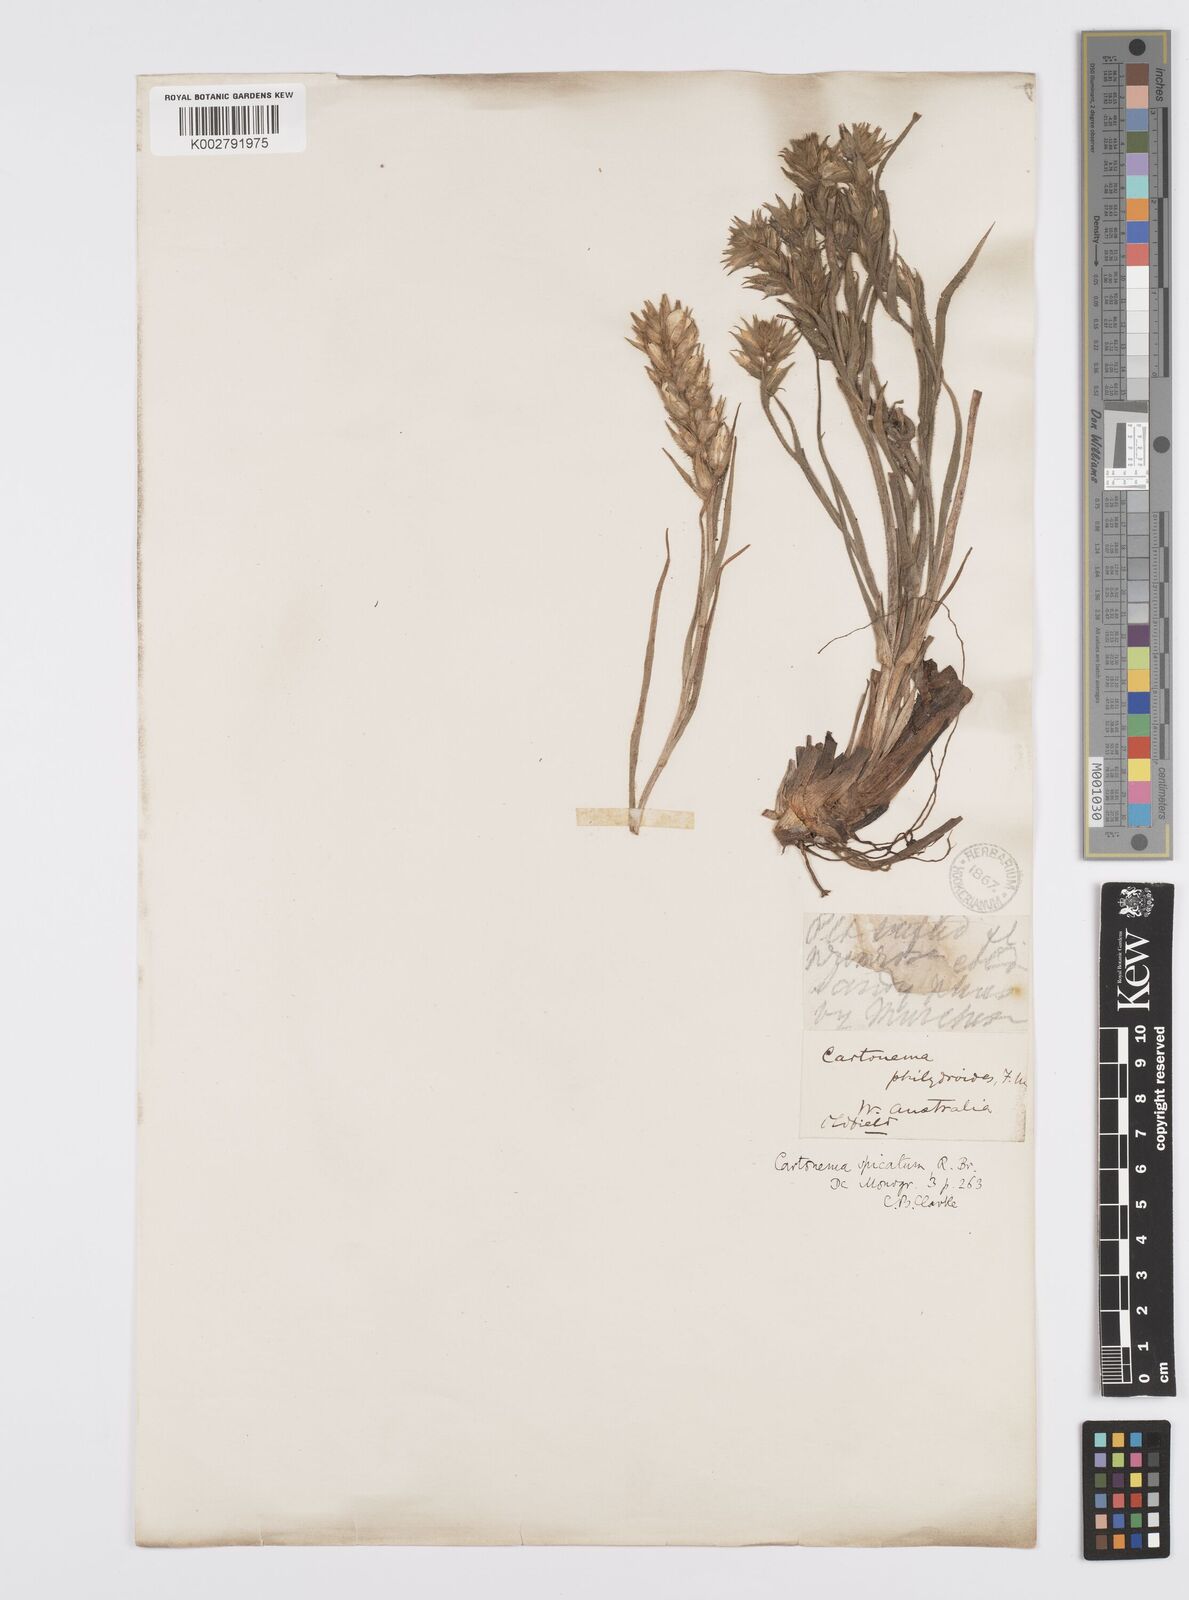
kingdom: Plantae
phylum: Tracheophyta
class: Liliopsida
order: Commelinales
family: Commelinaceae
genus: Cartonema
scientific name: Cartonema philydroides
